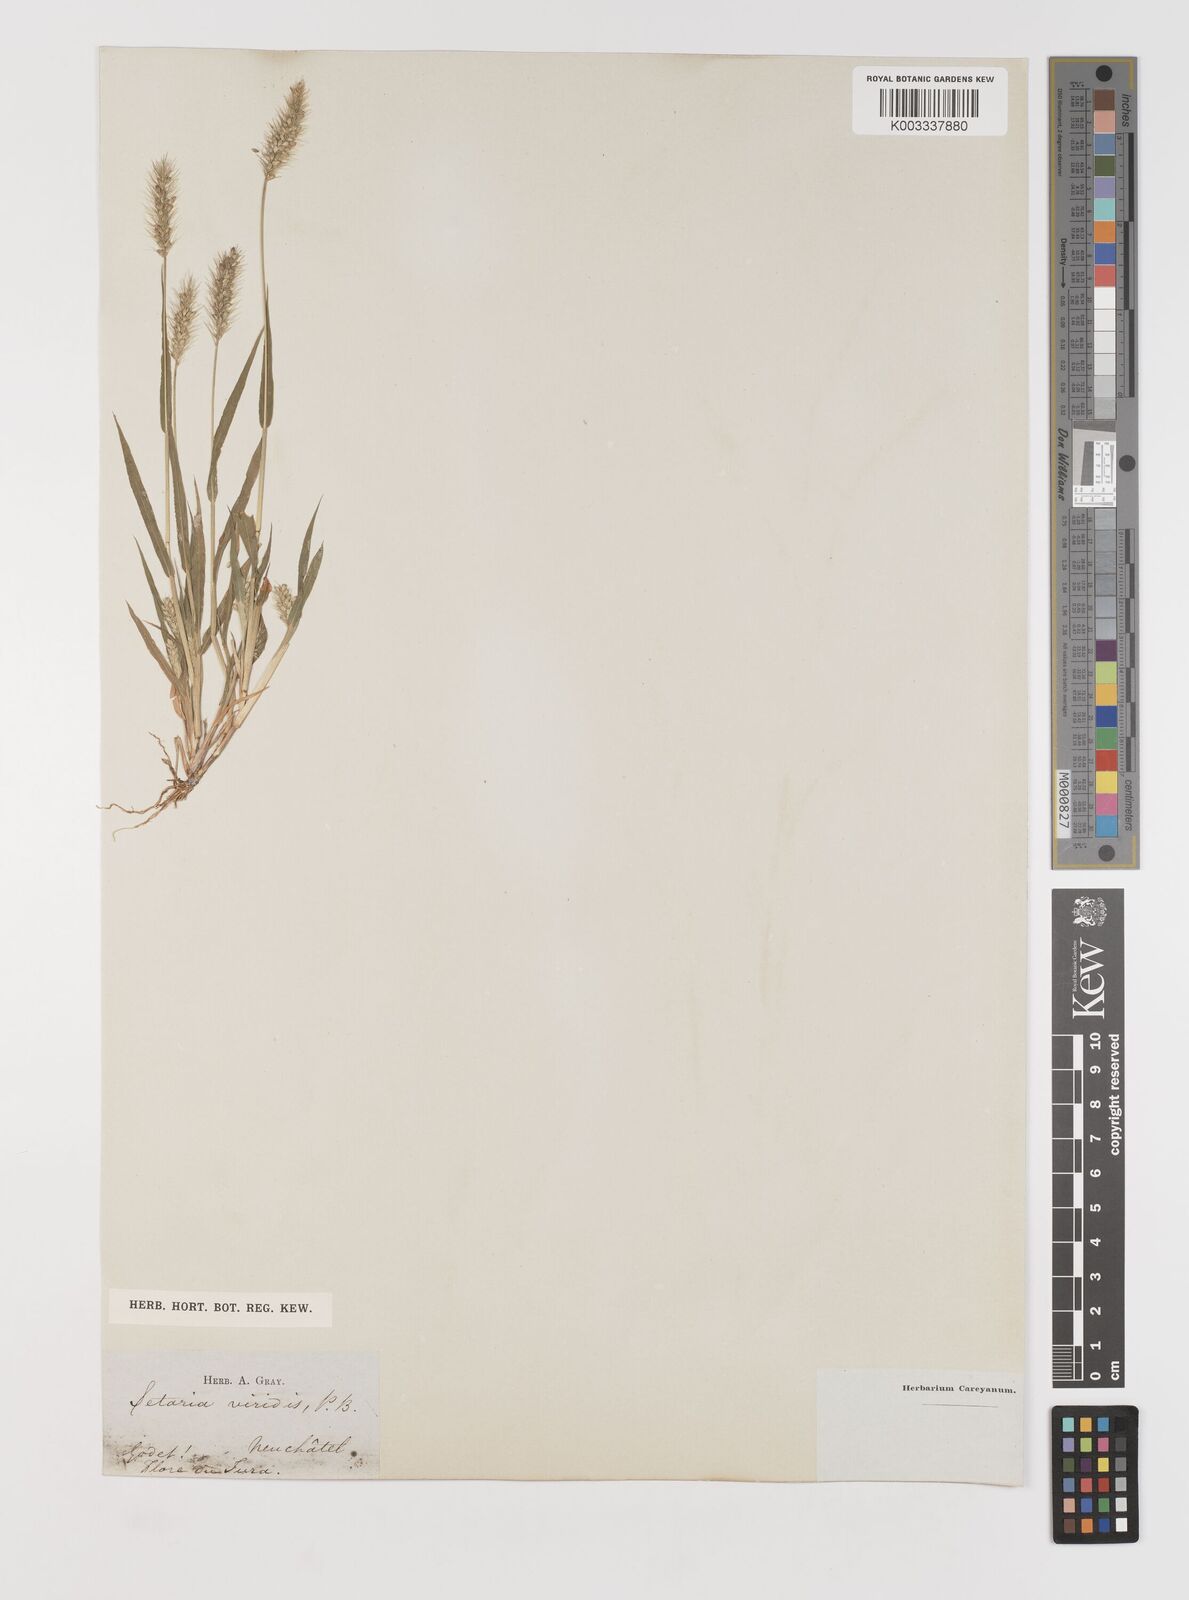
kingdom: Plantae
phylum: Tracheophyta
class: Liliopsida
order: Poales
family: Poaceae
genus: Setaria
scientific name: Setaria viridis
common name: Green bristlegrass
